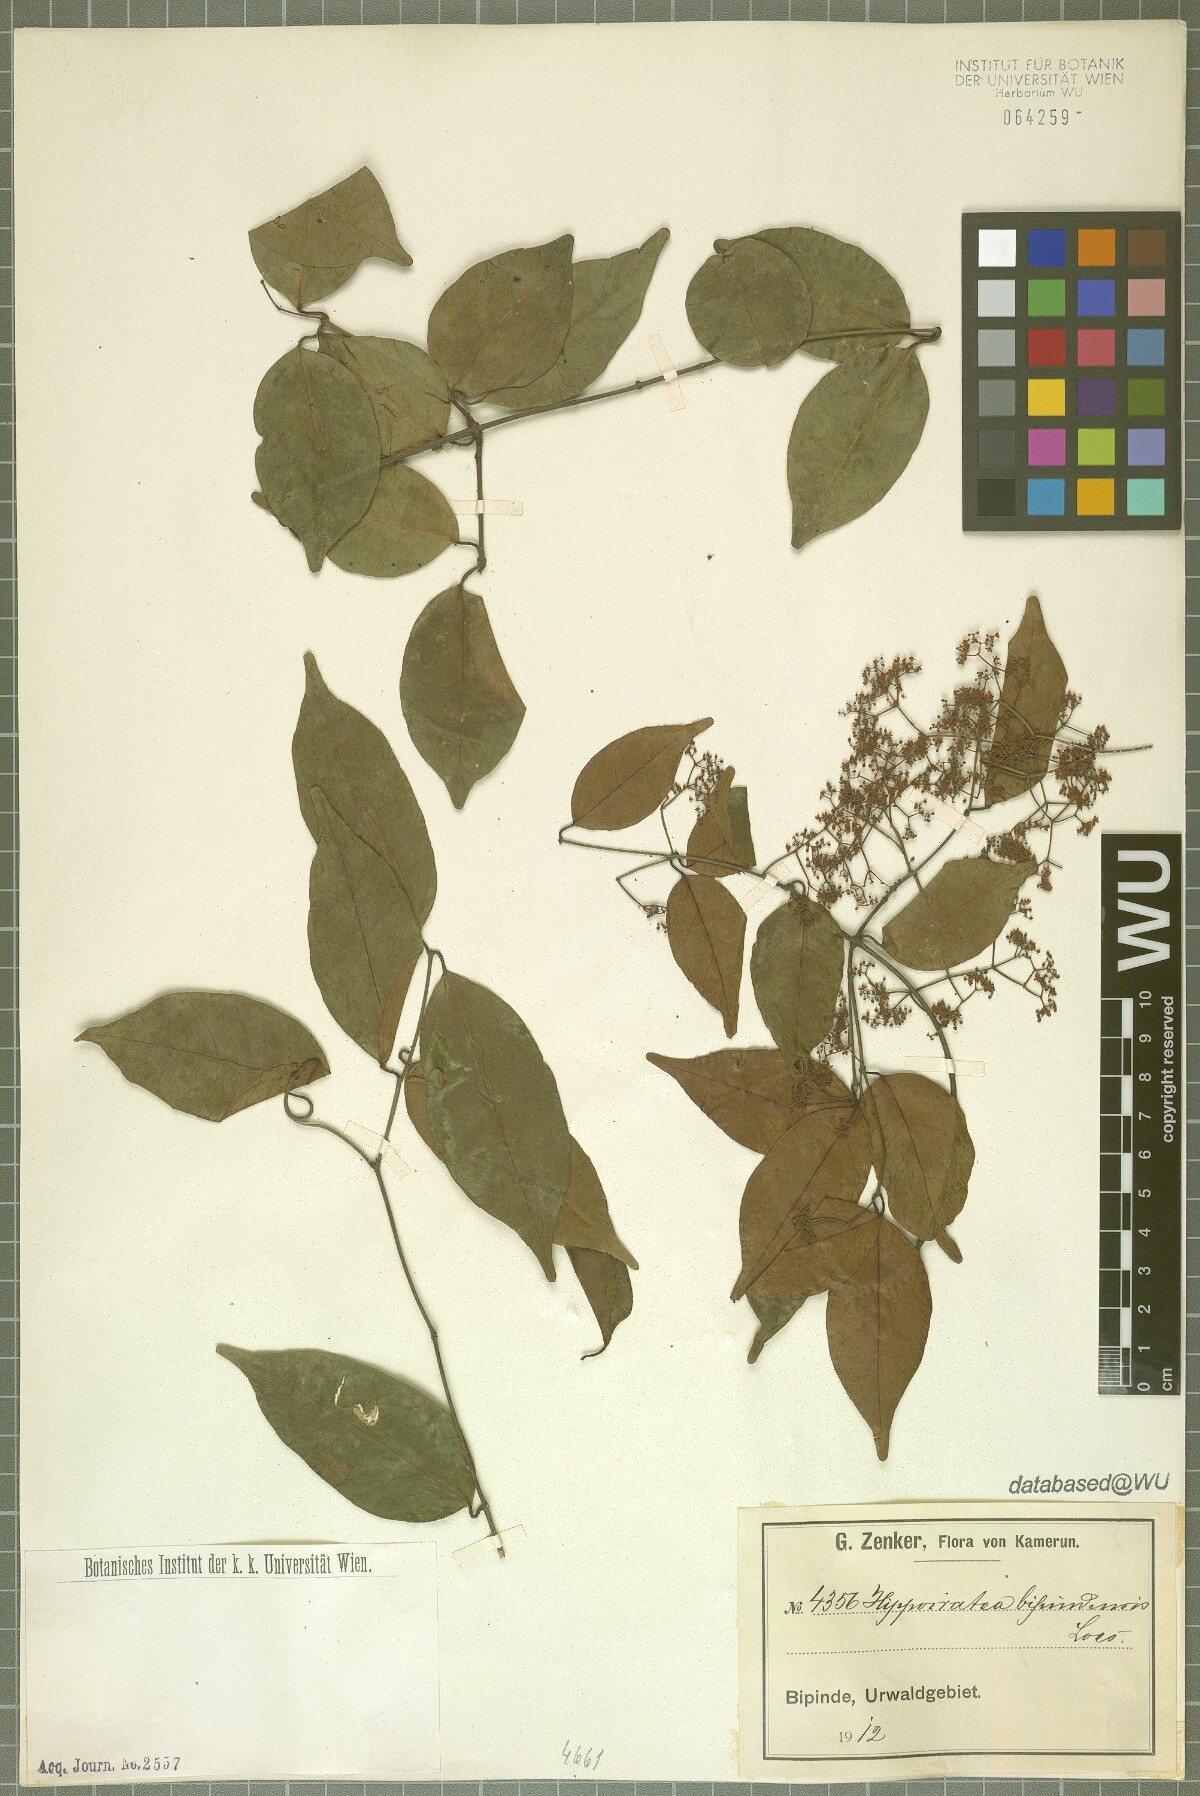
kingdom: Plantae
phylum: Tracheophyta
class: Magnoliopsida
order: Celastrales
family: Celastraceae
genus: Elachyptera
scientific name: Elachyptera bipindensis
